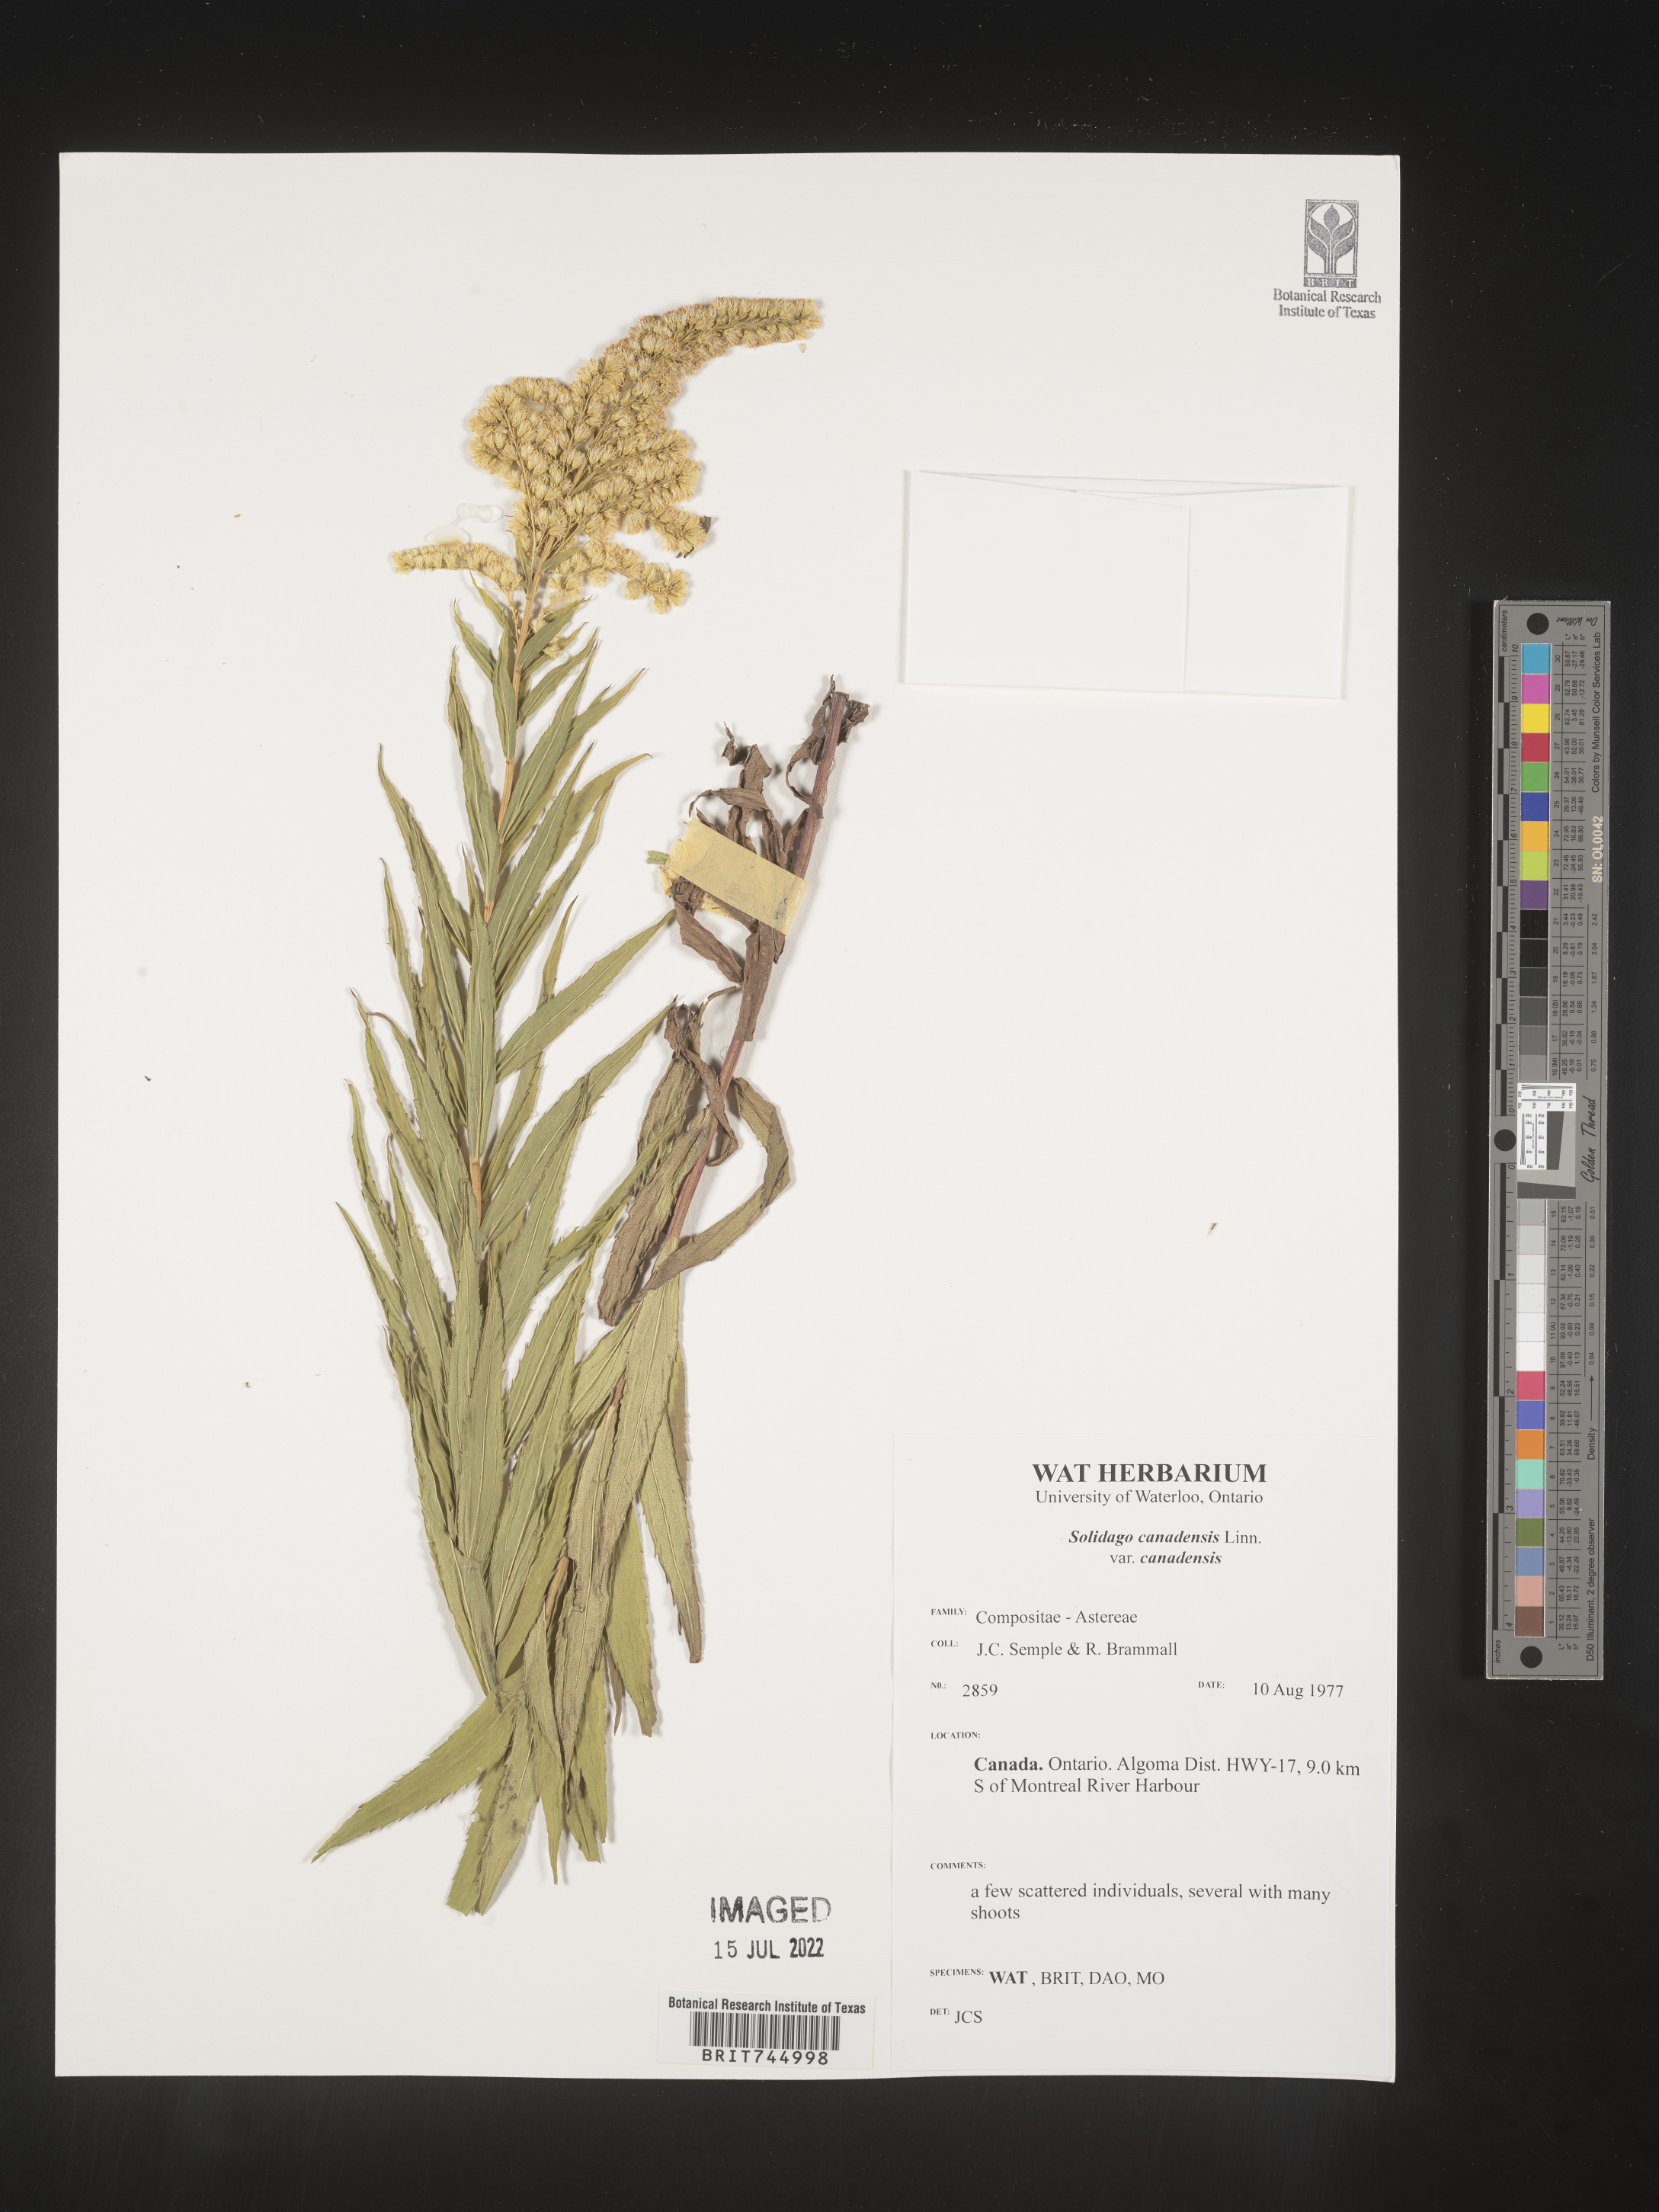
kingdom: Plantae
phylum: Tracheophyta
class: Magnoliopsida
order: Asterales
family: Asteraceae
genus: Solidago
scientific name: Solidago canadensis
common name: Canada goldenrod
